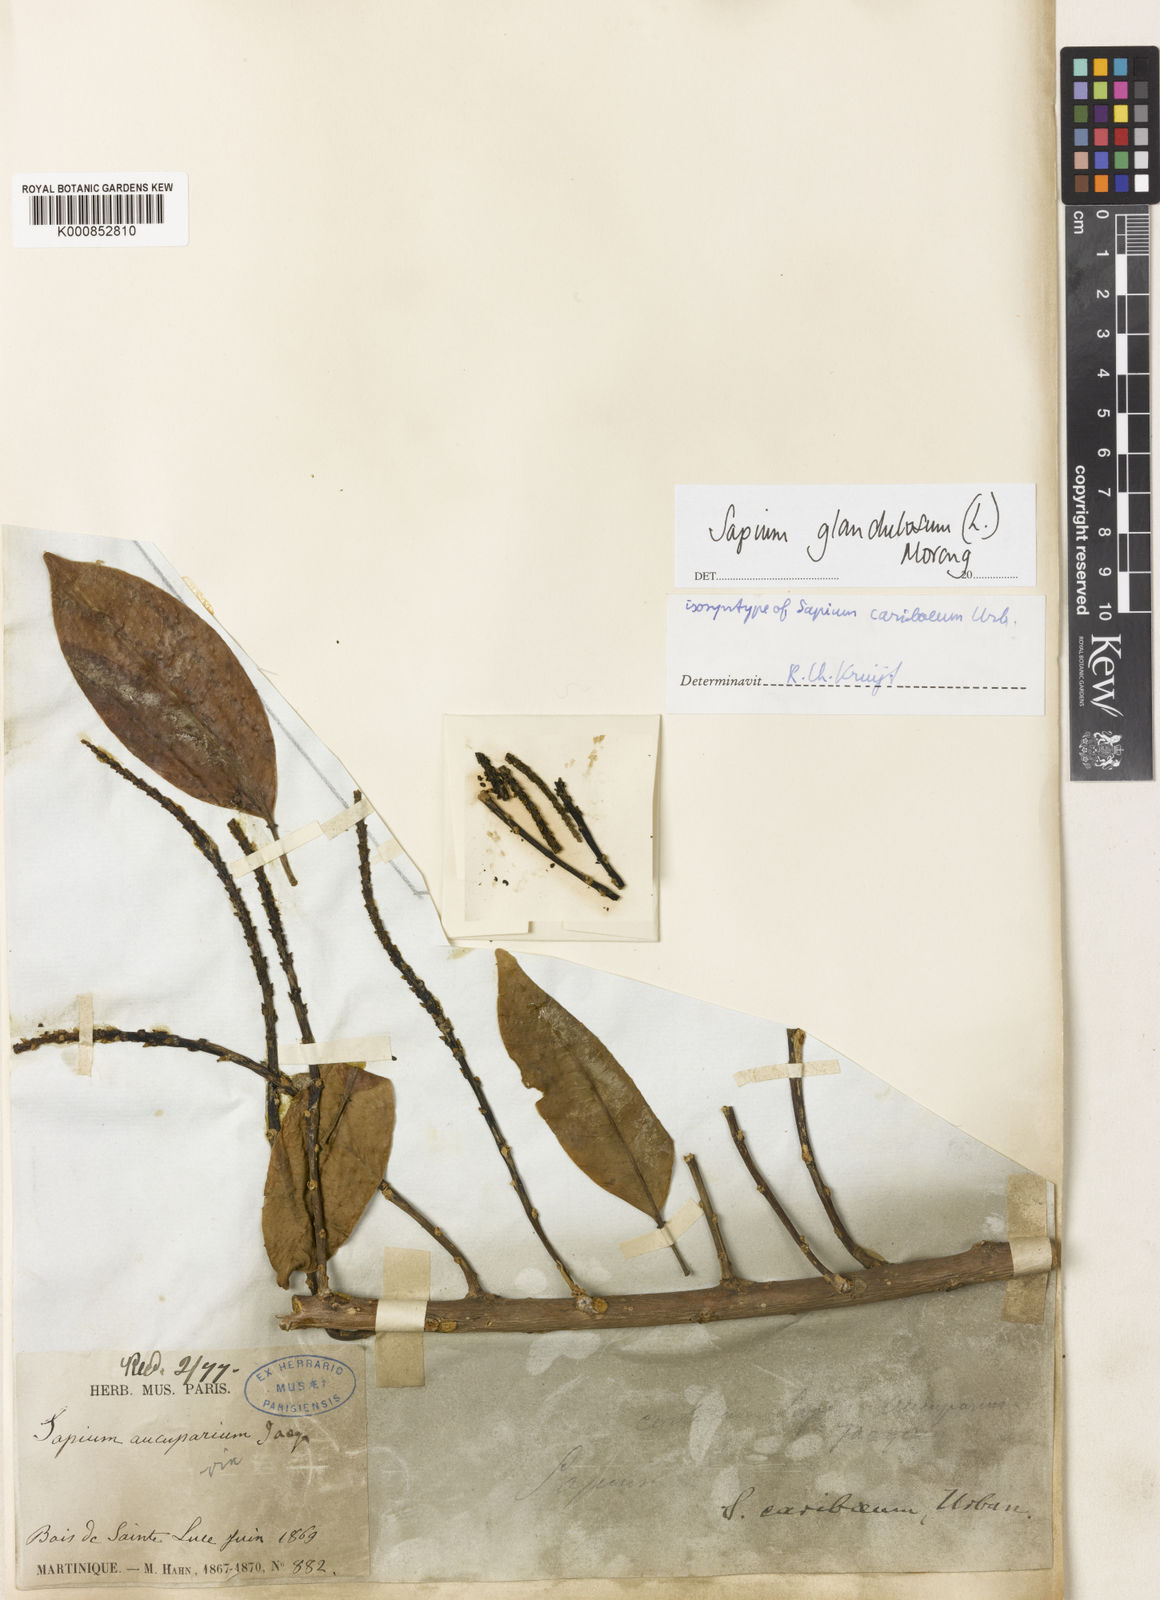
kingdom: Plantae
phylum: Tracheophyta
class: Magnoliopsida
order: Malpighiales
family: Euphorbiaceae
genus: Sapium
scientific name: Sapium glandulosum
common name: Milktree
